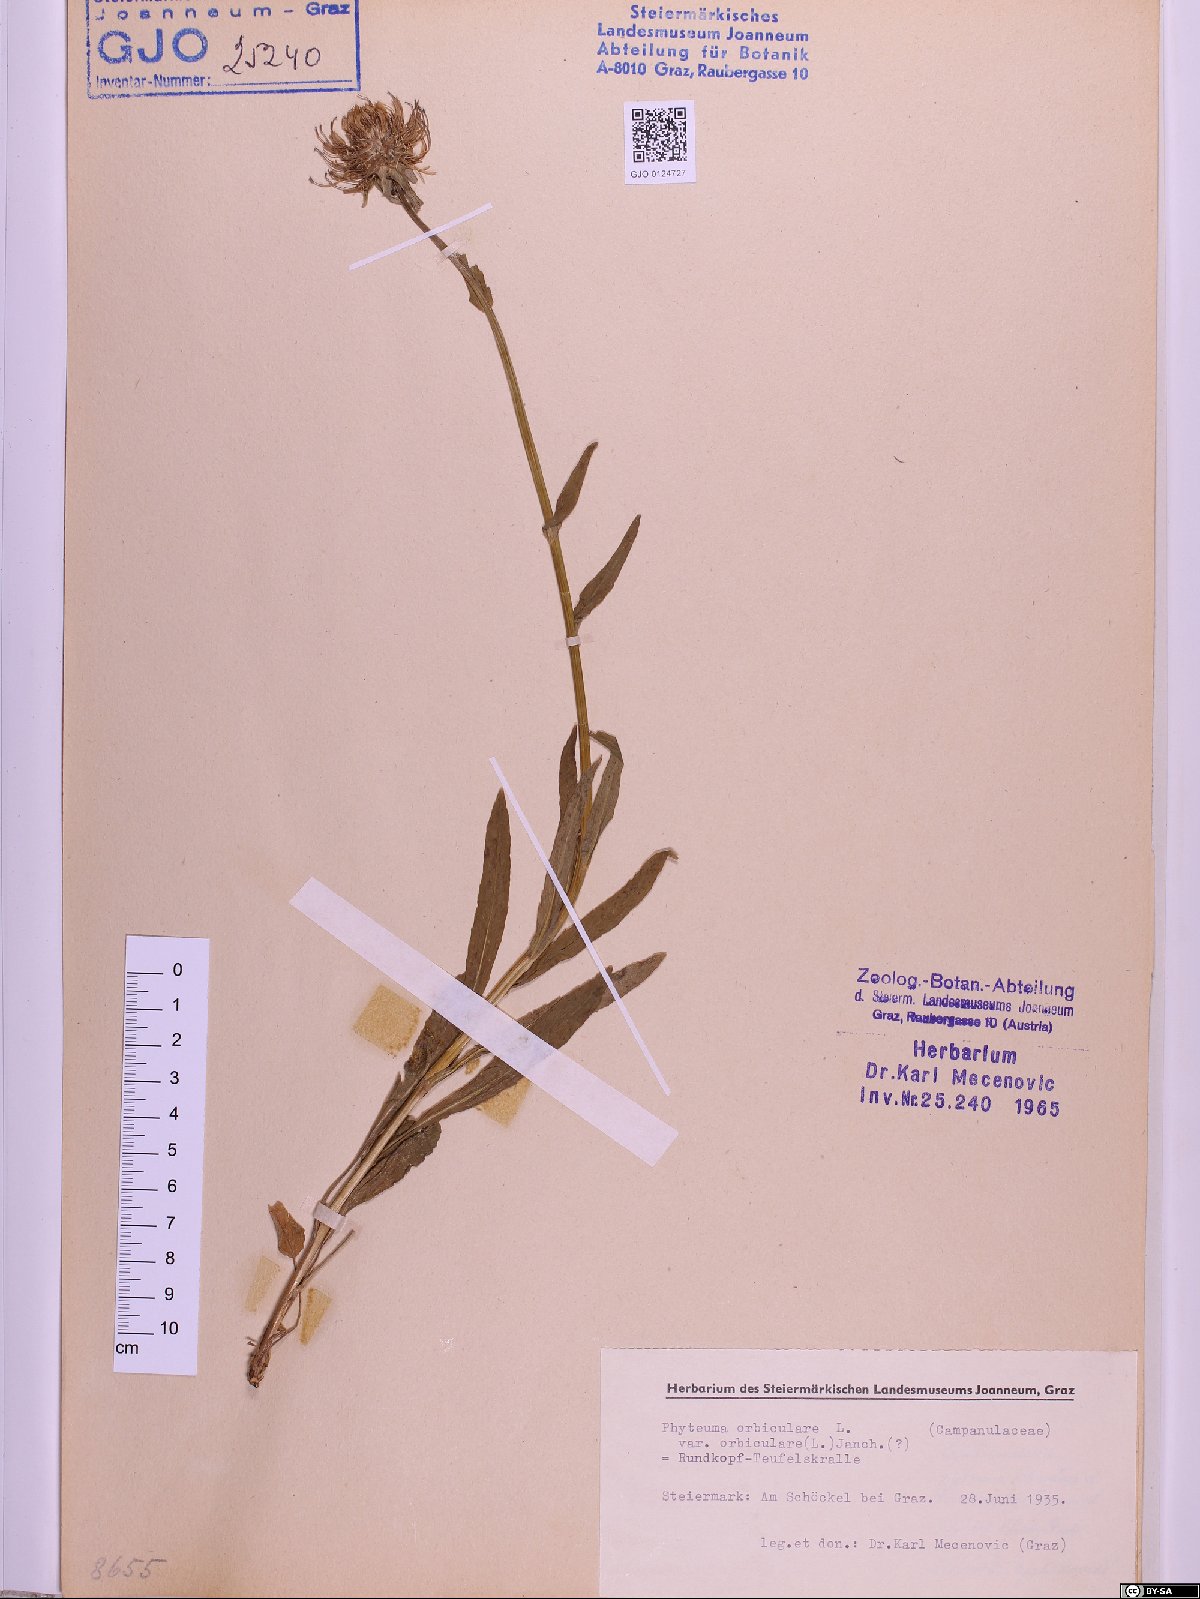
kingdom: Plantae
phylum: Tracheophyta
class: Magnoliopsida
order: Asterales
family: Campanulaceae
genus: Phyteuma
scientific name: Phyteuma orbiculare
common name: Round-headed rampion
